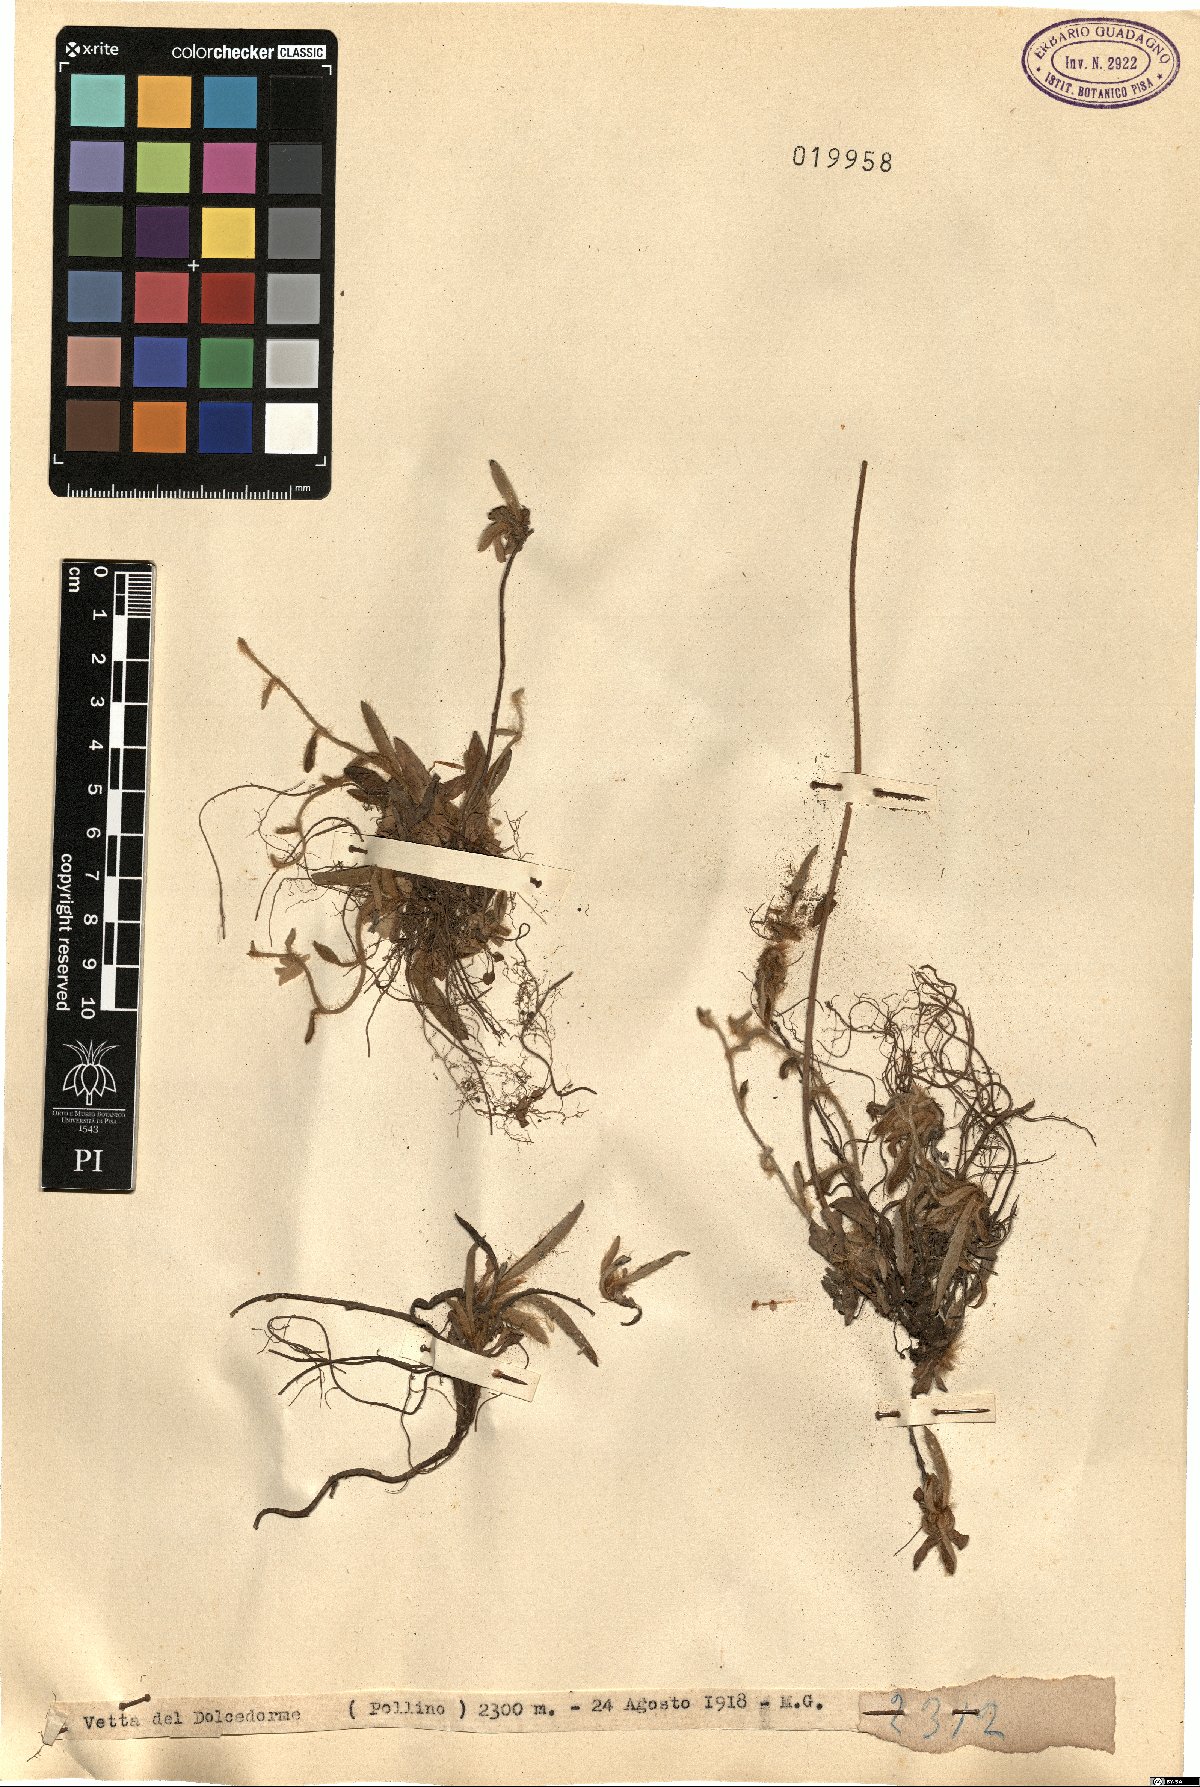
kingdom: Plantae
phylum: Tracheophyta
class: Magnoliopsida
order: Asterales
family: Asteraceae
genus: Hieracium
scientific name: Hieracium
